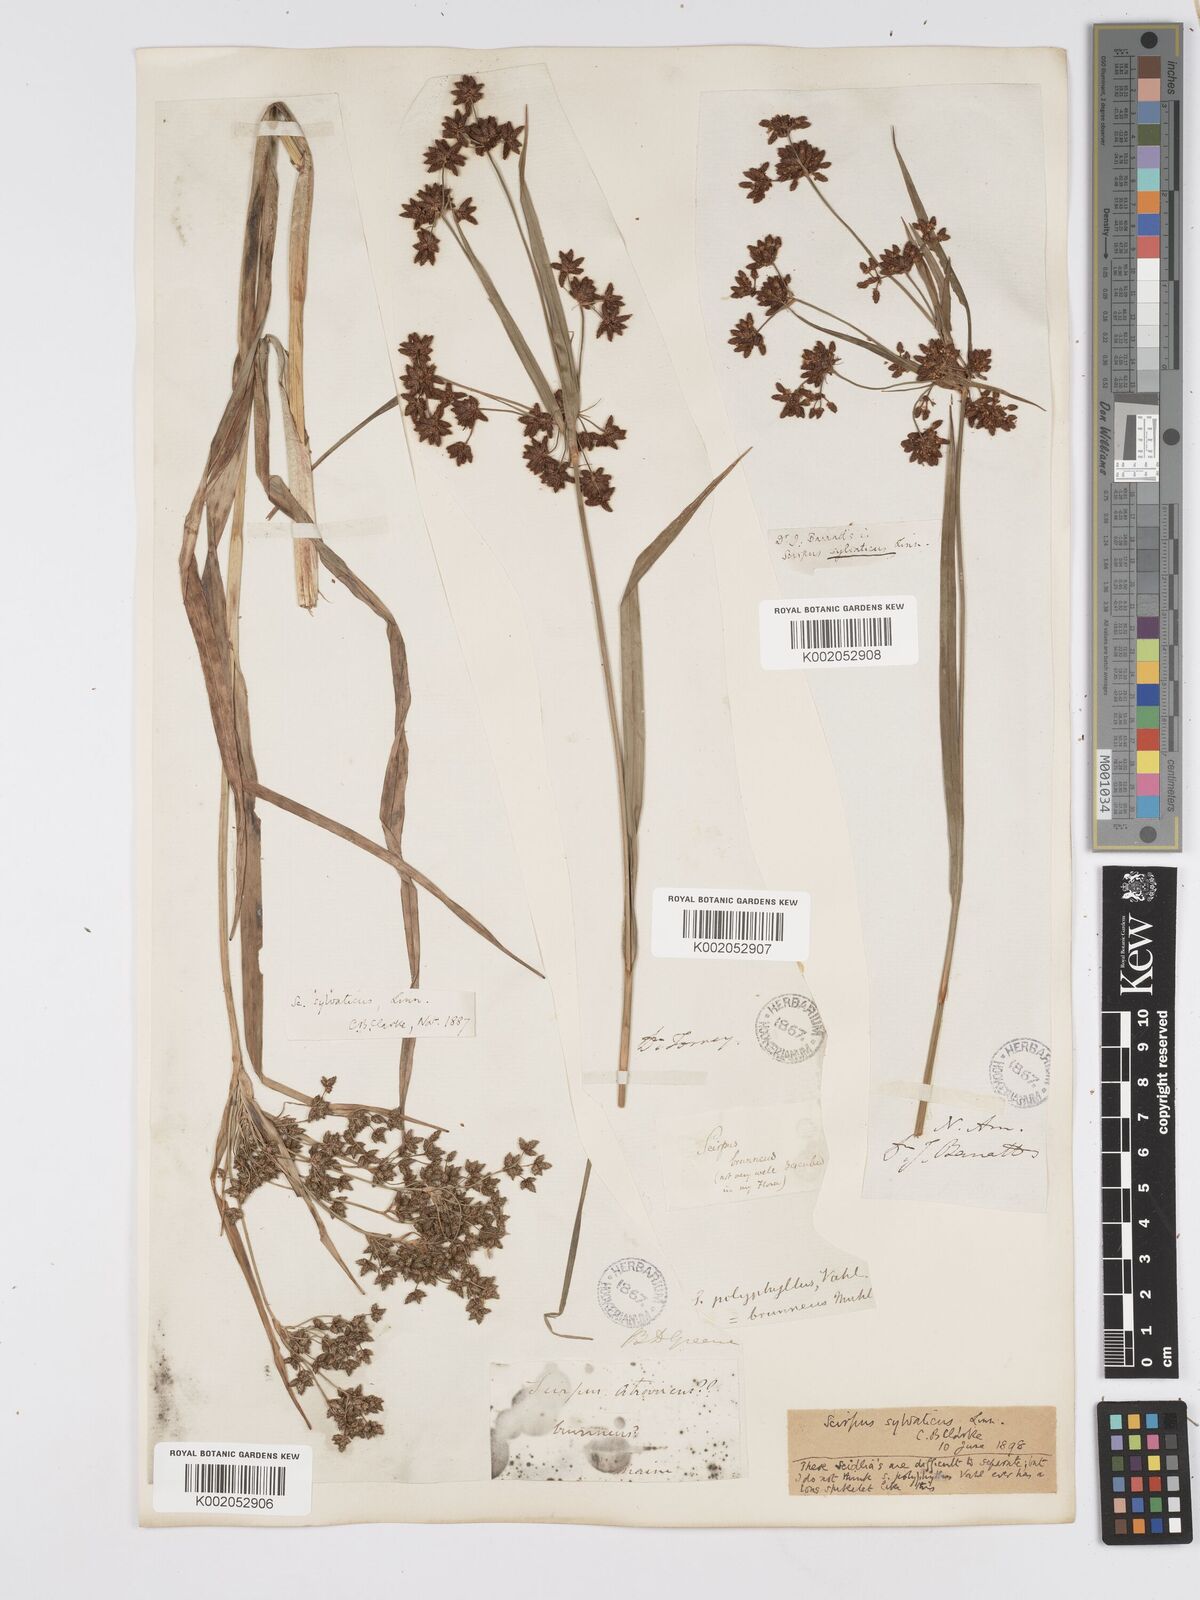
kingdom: Plantae
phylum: Tracheophyta
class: Liliopsida
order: Poales
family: Cyperaceae
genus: Scirpus
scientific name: Scirpus sylvaticus
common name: Wood club-rush
